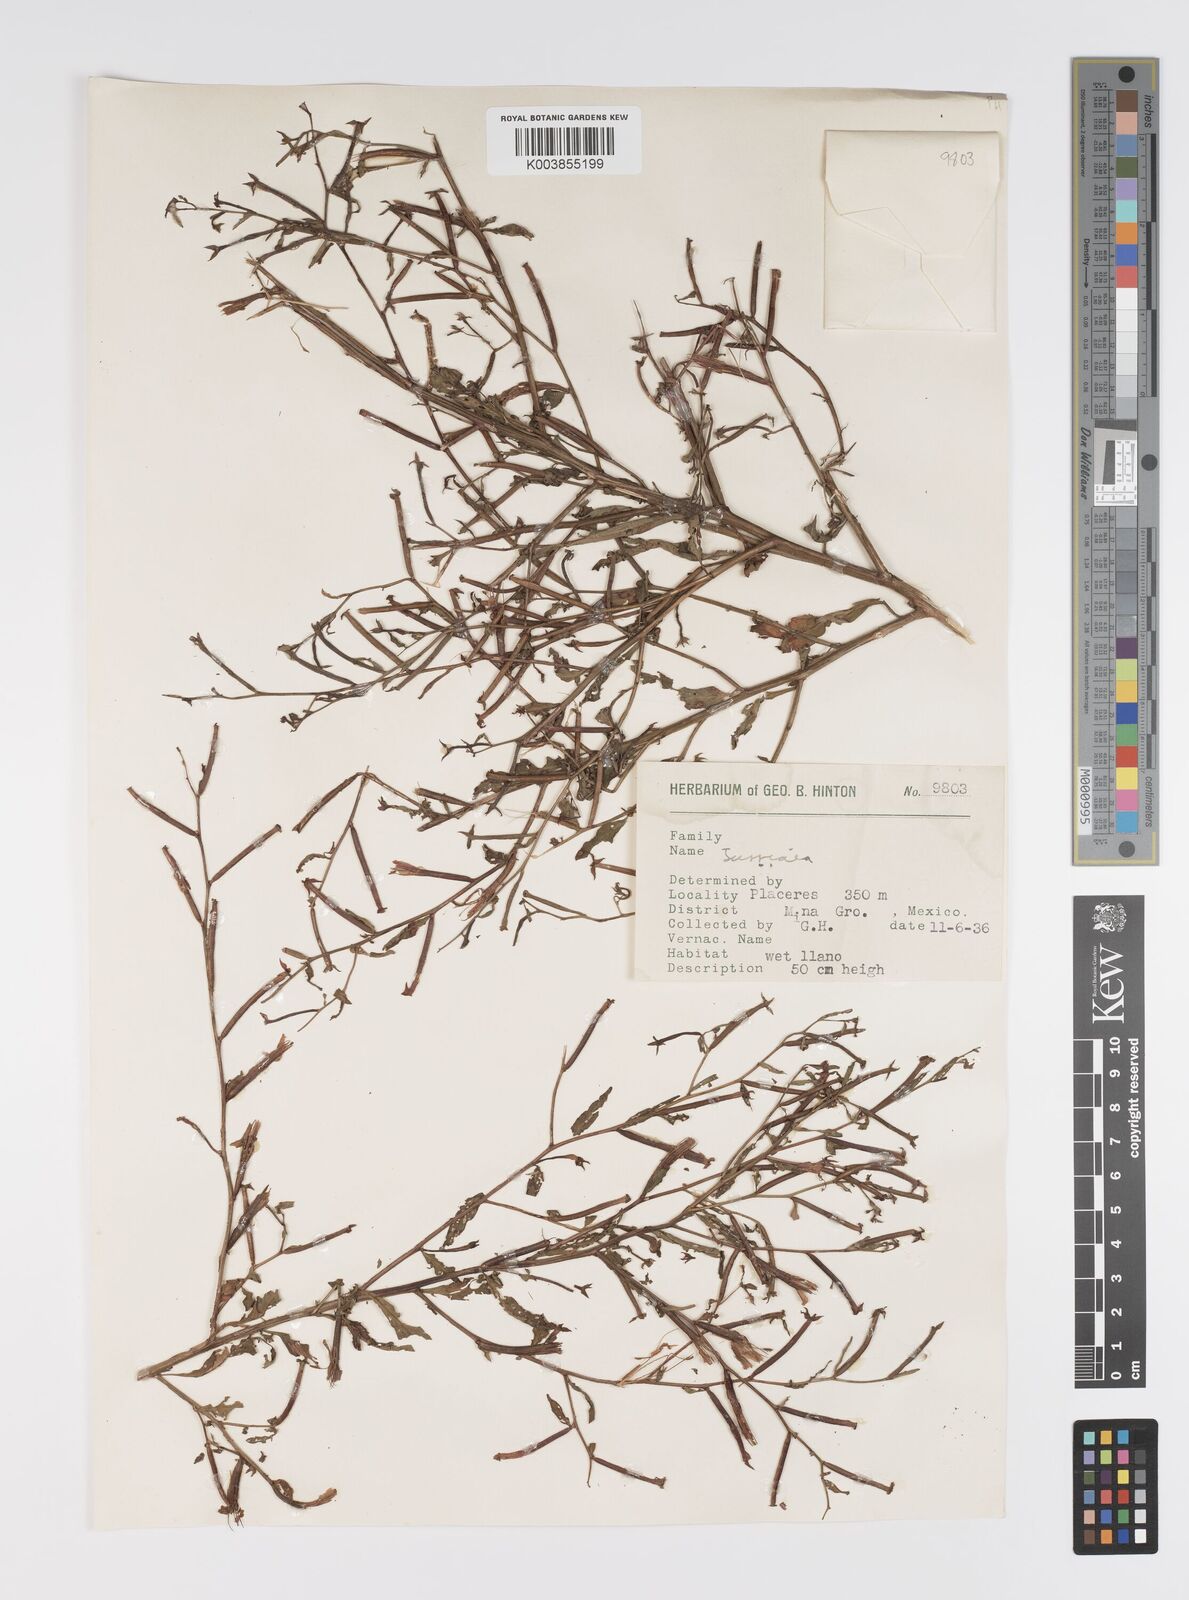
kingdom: Plantae
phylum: Tracheophyta
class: Magnoliopsida
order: Myrtales
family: Onagraceae
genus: Ludwigia
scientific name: Ludwigia
